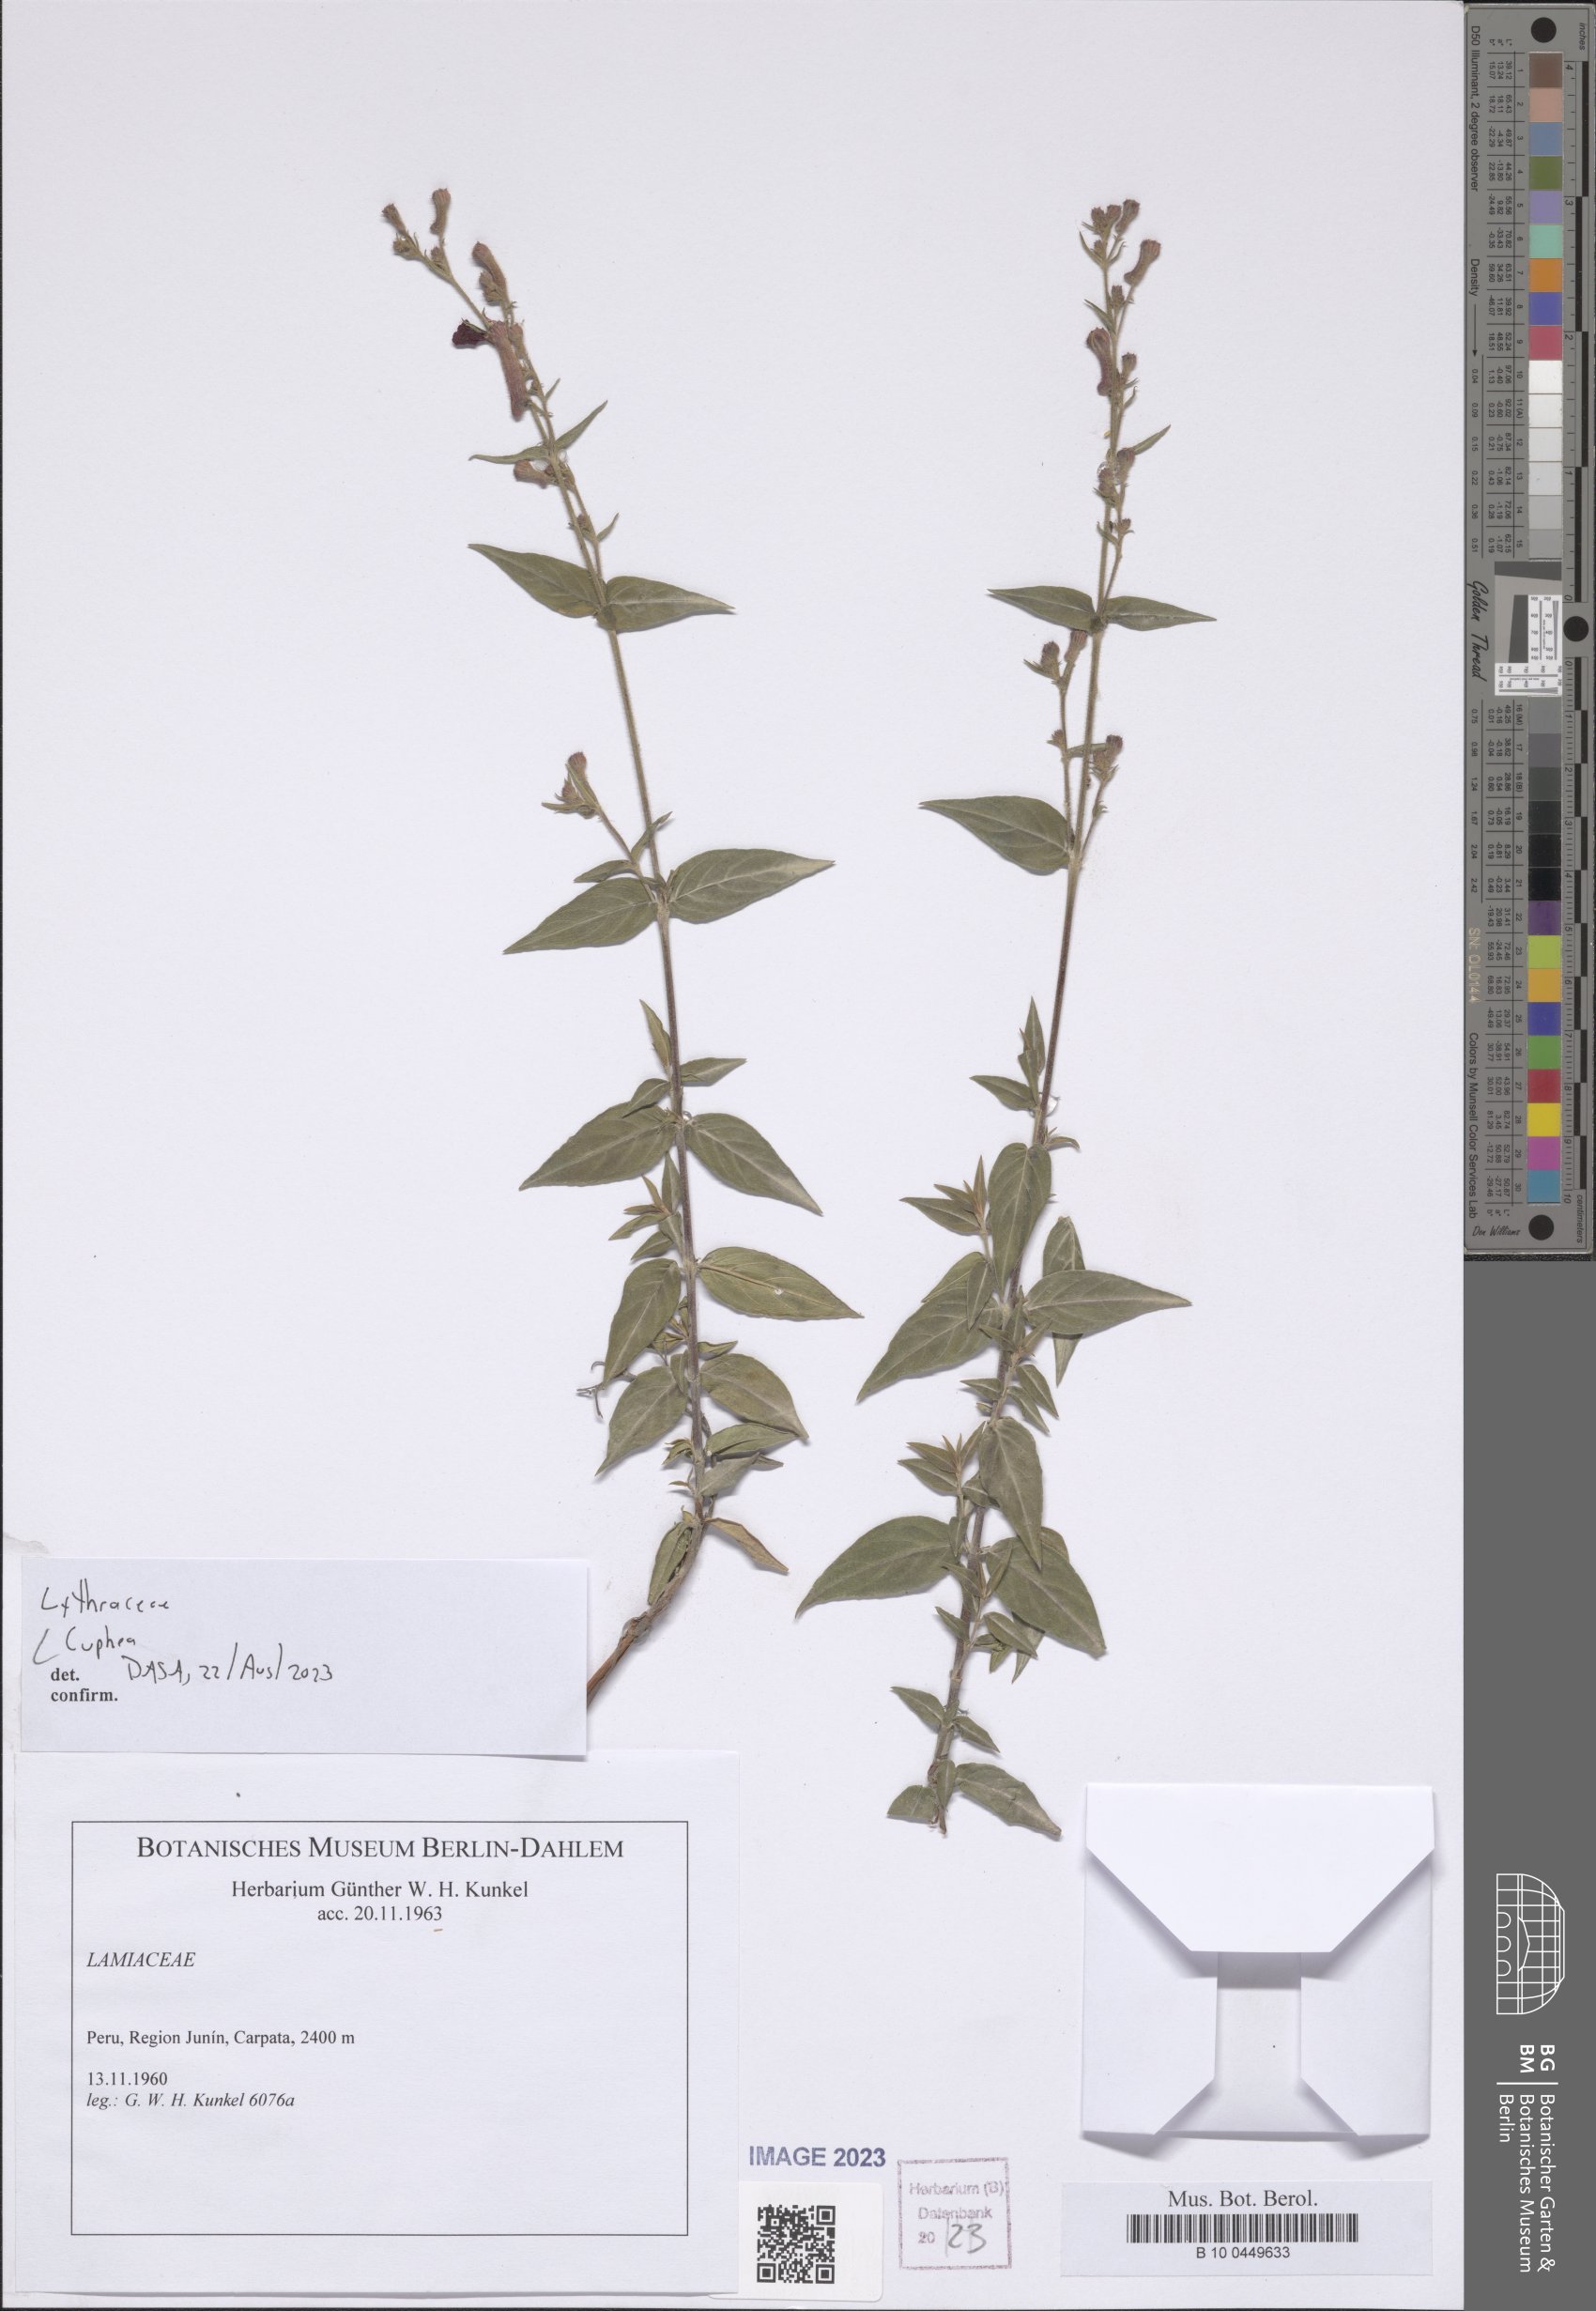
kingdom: Plantae
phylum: Tracheophyta
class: Magnoliopsida
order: Myrtales
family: Lythraceae
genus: Cuphea
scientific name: Cuphea
